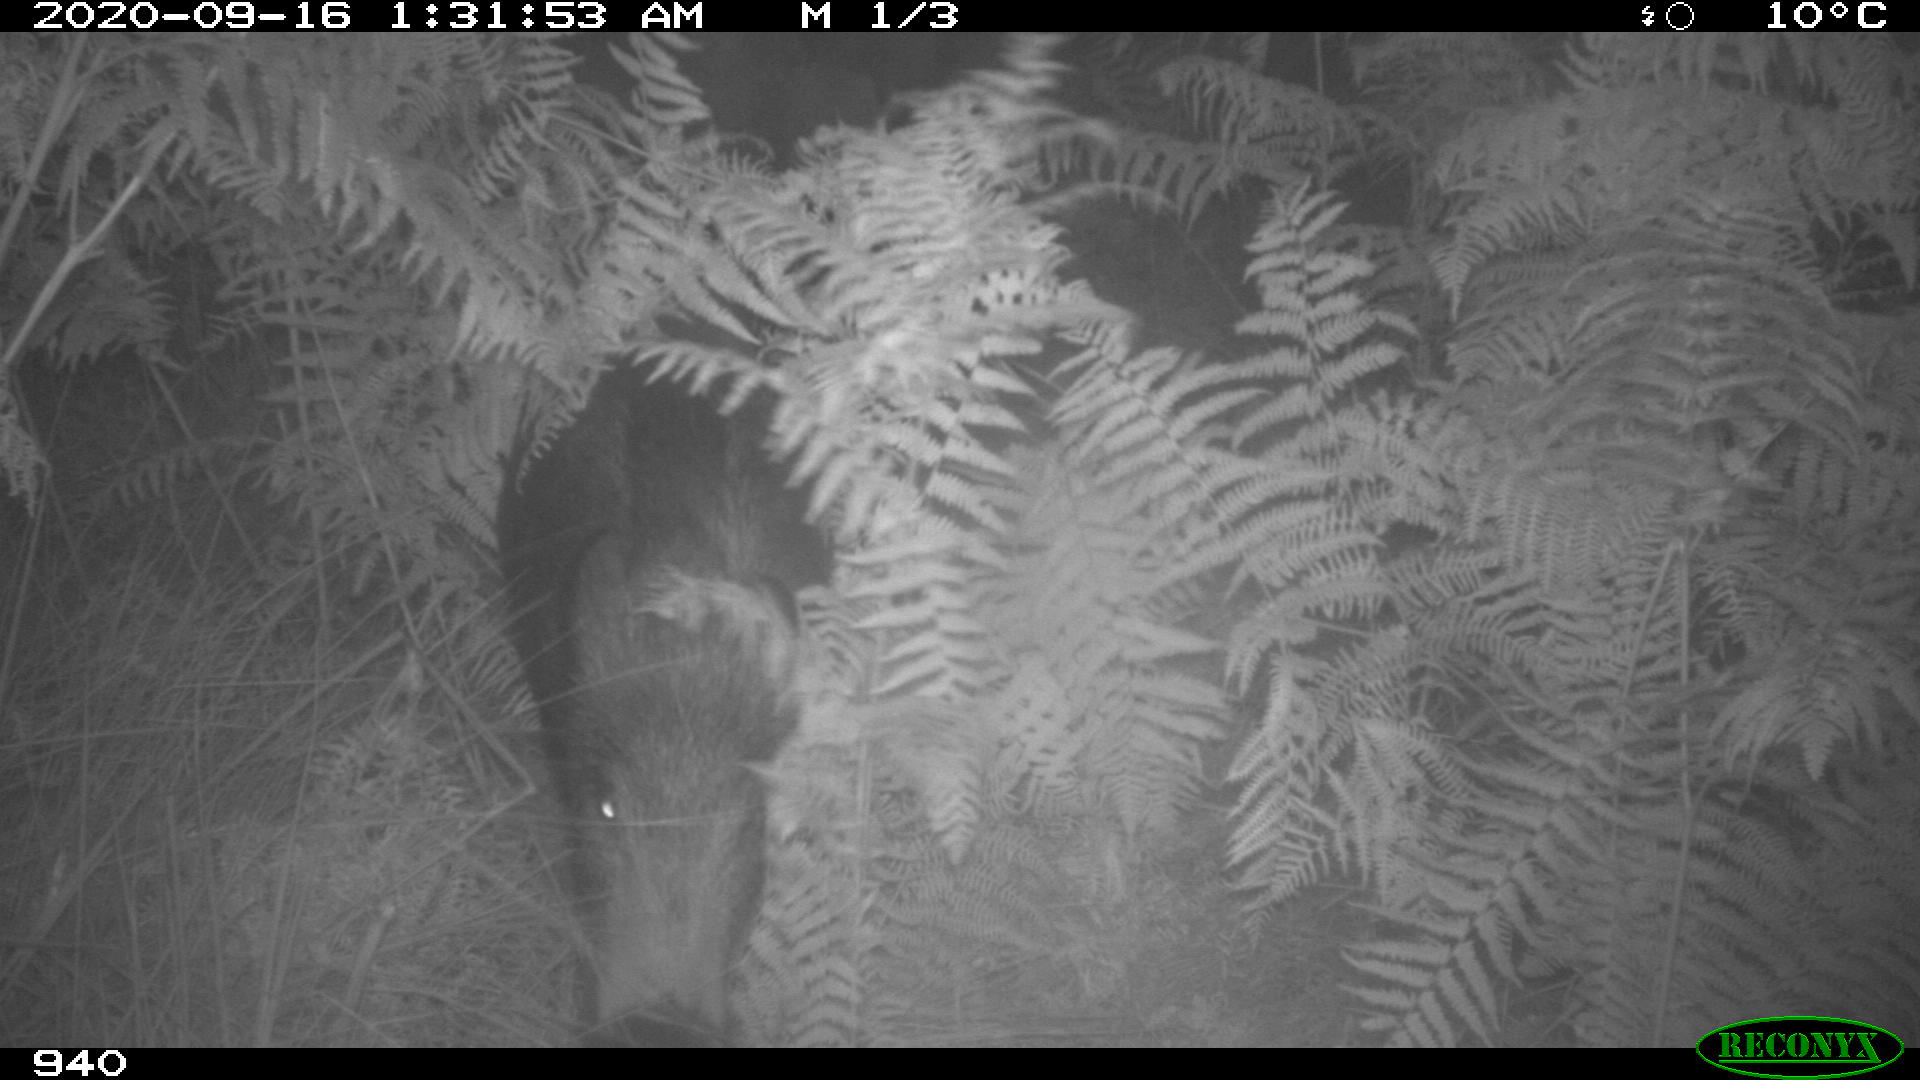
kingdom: Animalia
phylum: Chordata
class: Mammalia
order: Artiodactyla
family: Suidae
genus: Sus
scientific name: Sus scrofa
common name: Wild boar
